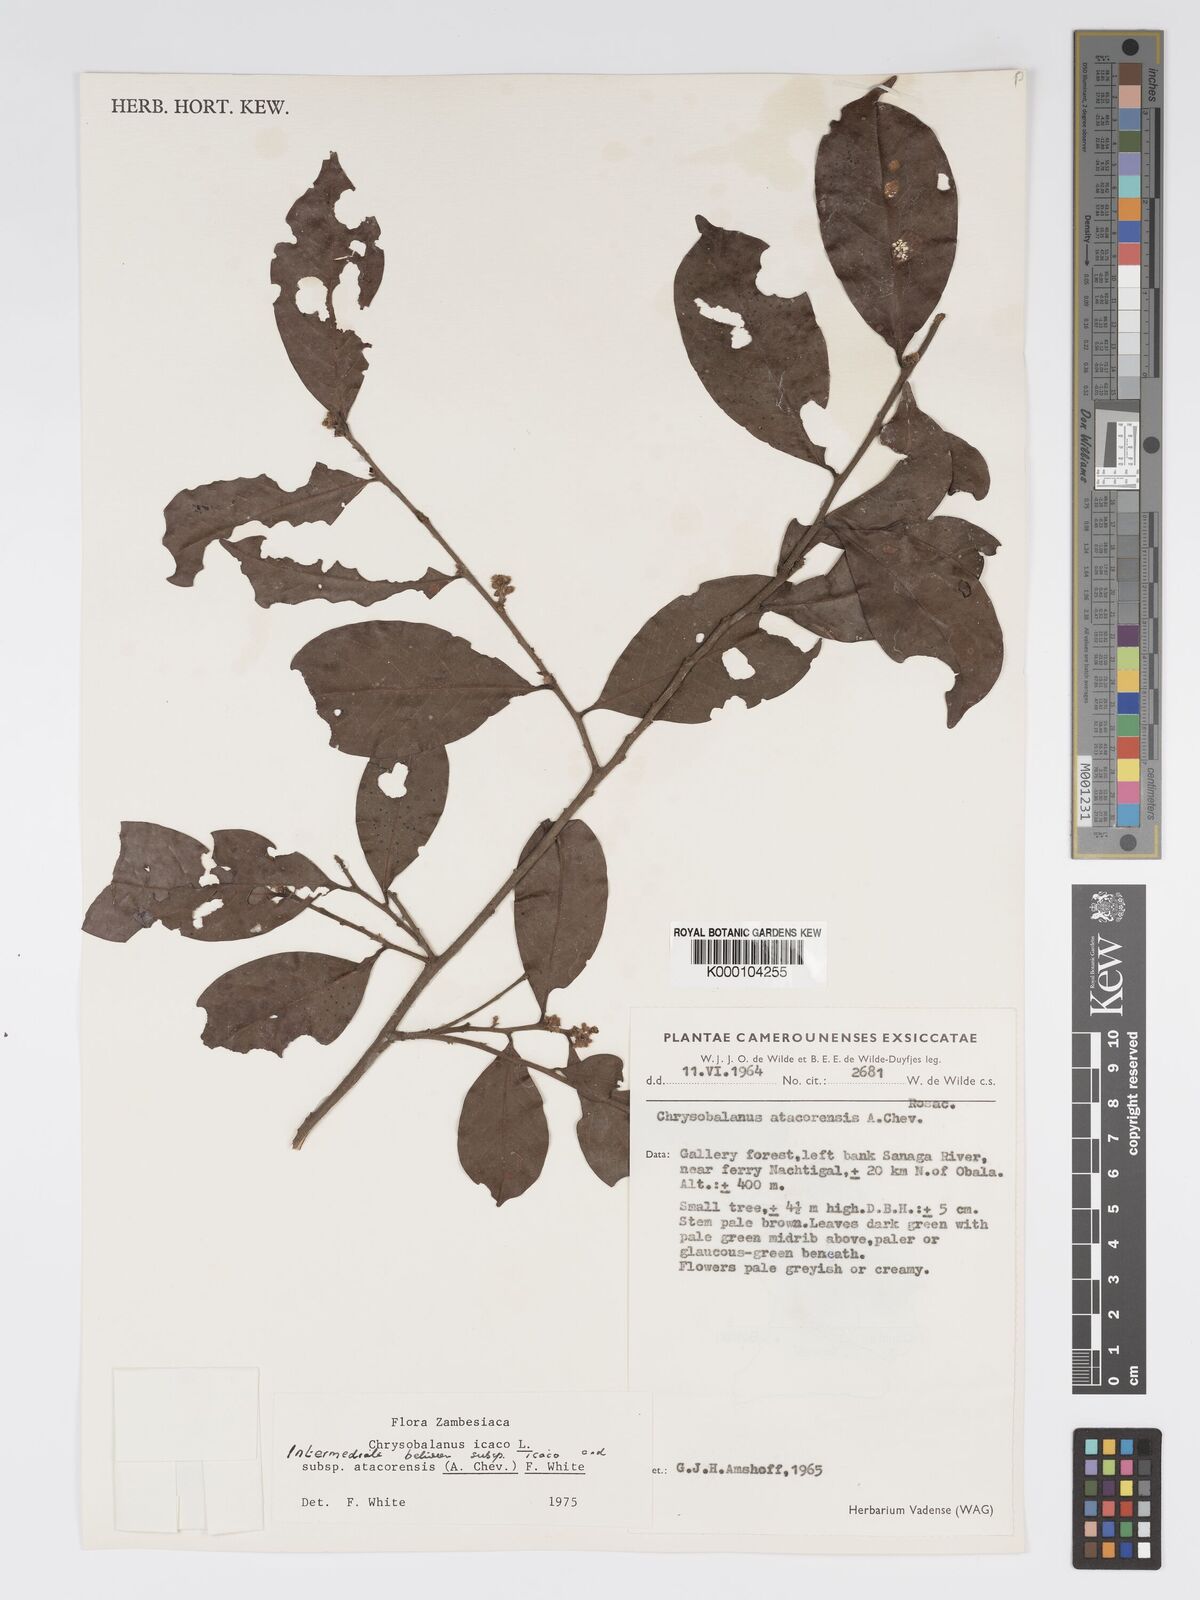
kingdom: Plantae
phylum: Tracheophyta
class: Magnoliopsida
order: Malpighiales
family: Chrysobalanaceae
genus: Chrysobalanus
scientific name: Chrysobalanus icaco
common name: Coco plum
